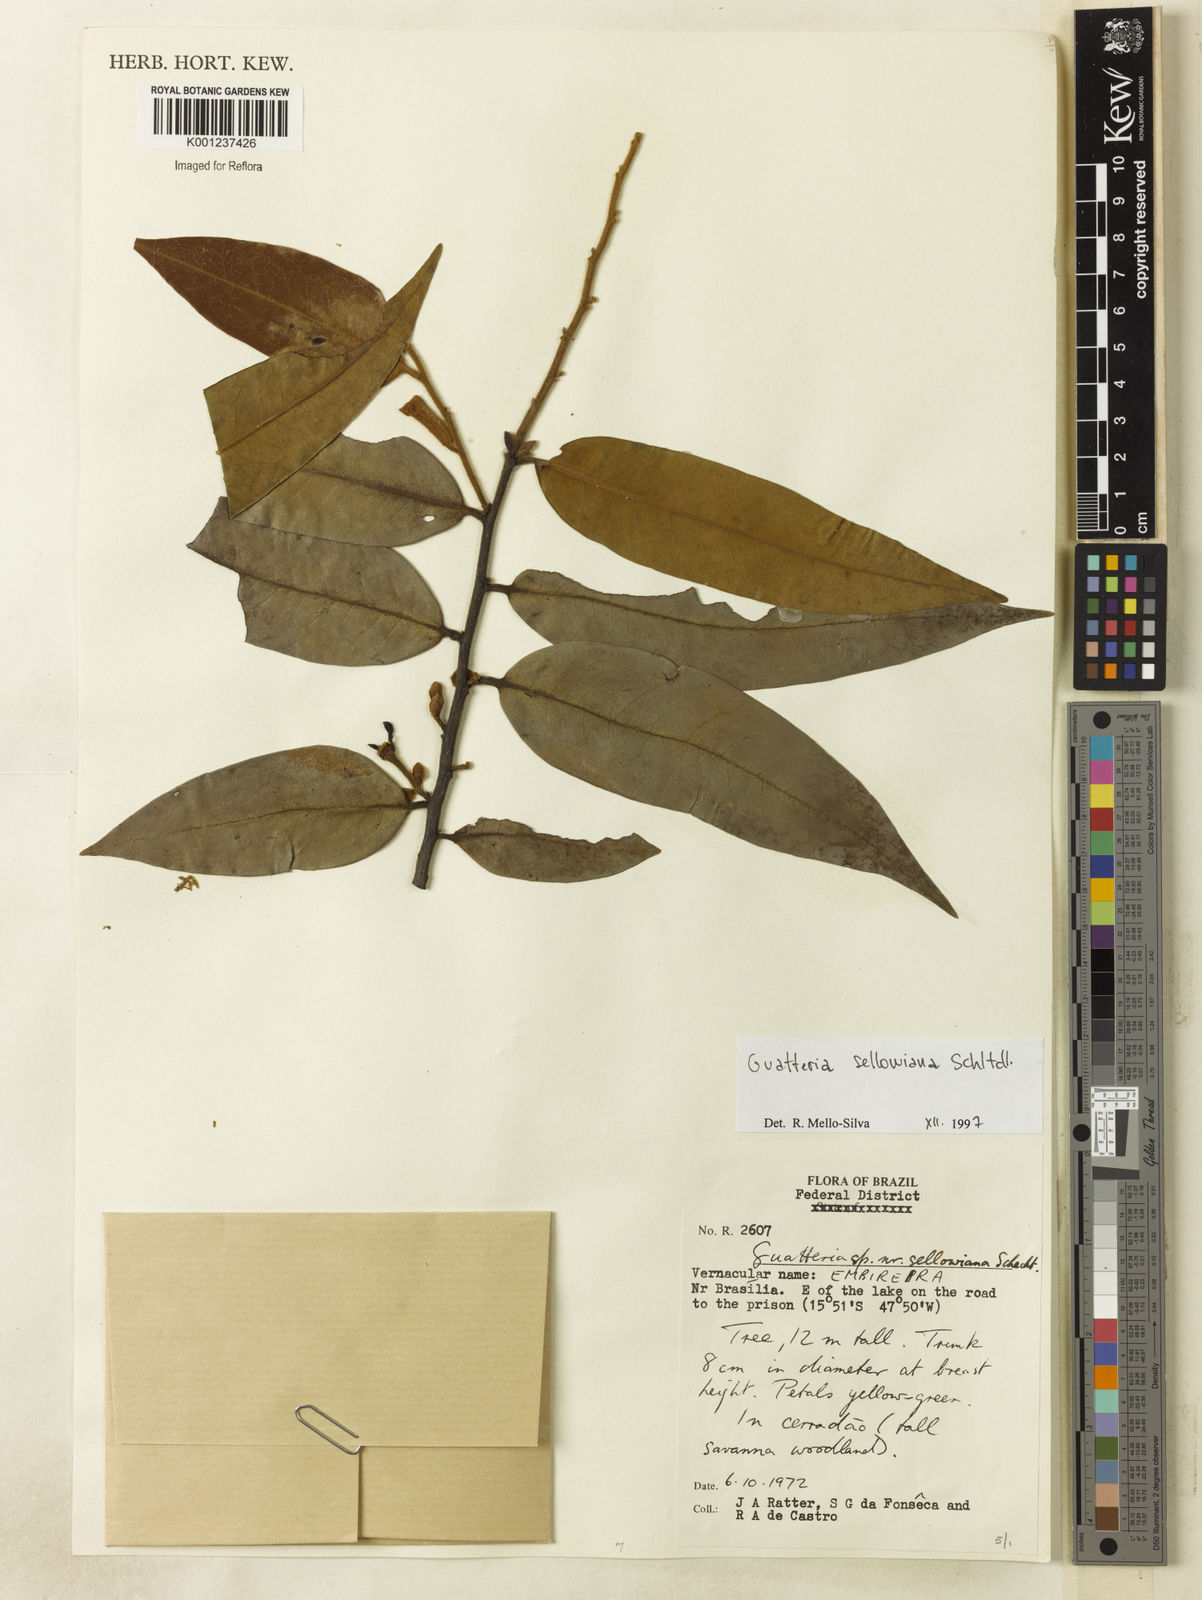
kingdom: Plantae
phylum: Tracheophyta
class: Magnoliopsida
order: Magnoliales
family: Annonaceae
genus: Guatteria
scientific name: Guatteria sellowiana
